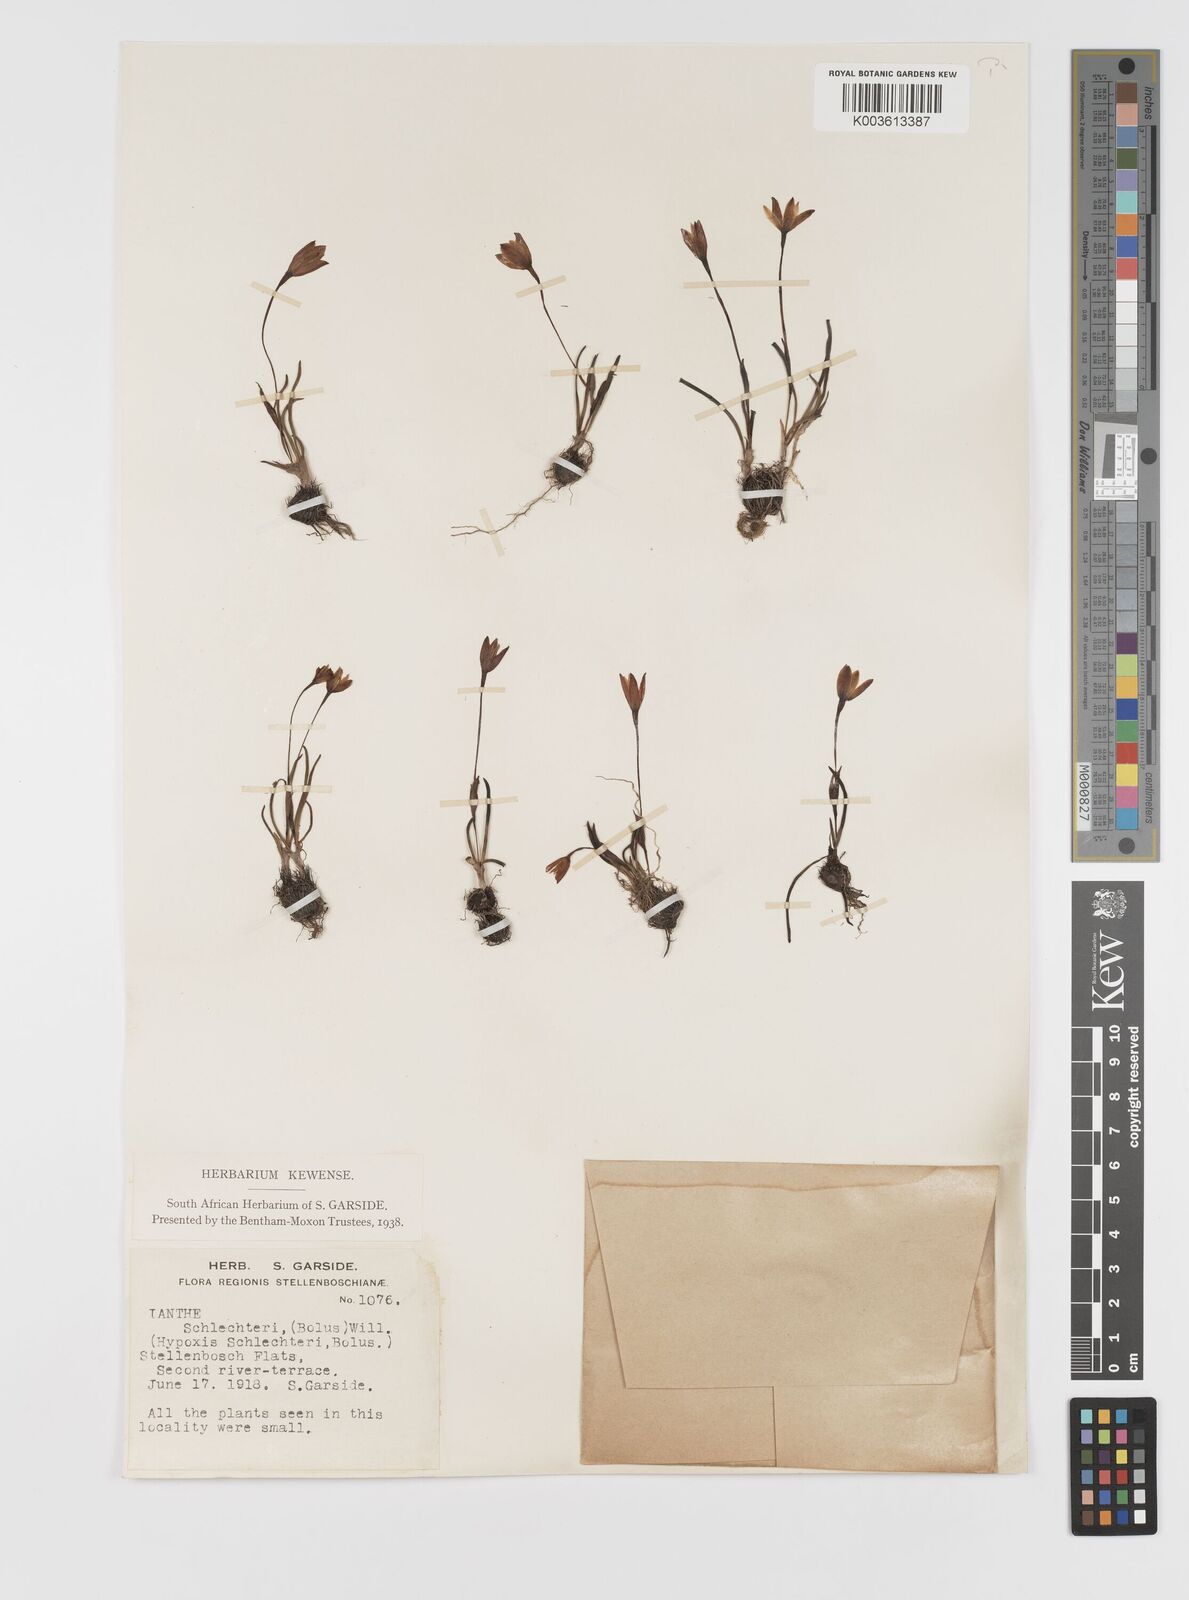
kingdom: Plantae
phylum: Tracheophyta
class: Liliopsida
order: Asparagales
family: Hypoxidaceae
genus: Pauridia
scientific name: Pauridia affinis
